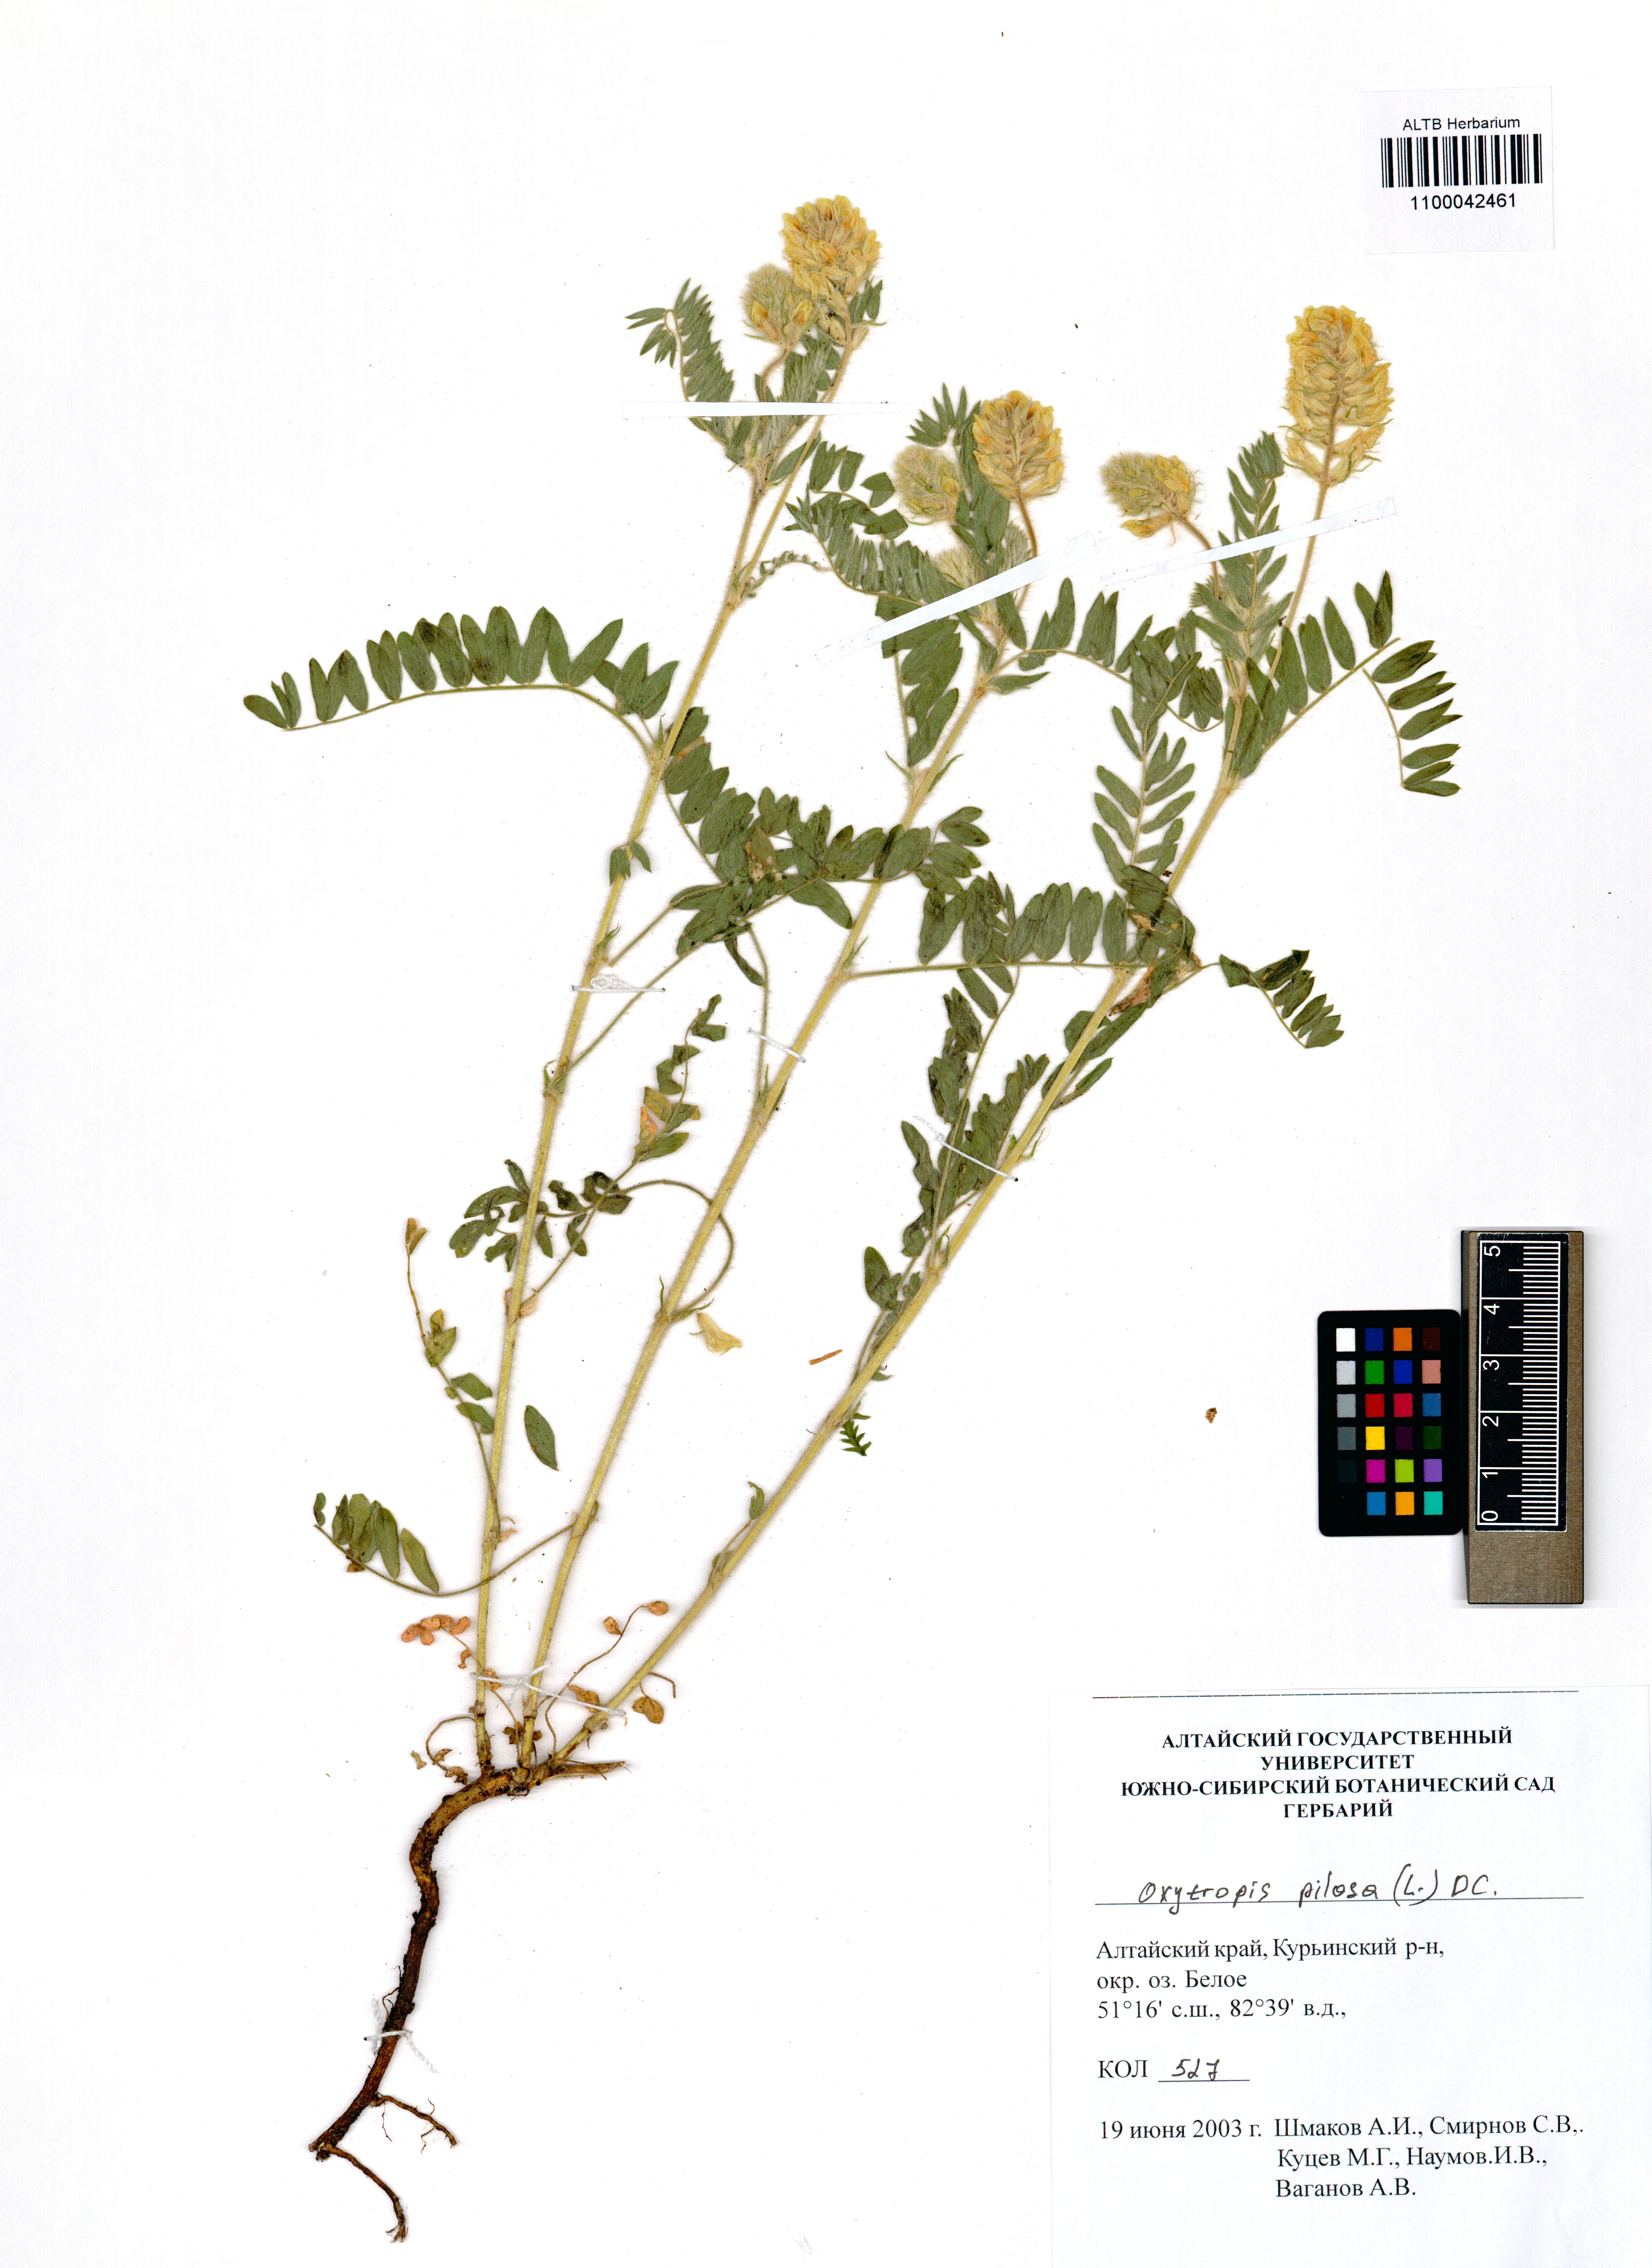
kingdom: Plantae
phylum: Tracheophyta
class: Magnoliopsida
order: Fabales
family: Fabaceae
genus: Oxytropis
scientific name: Oxytropis pilosa
